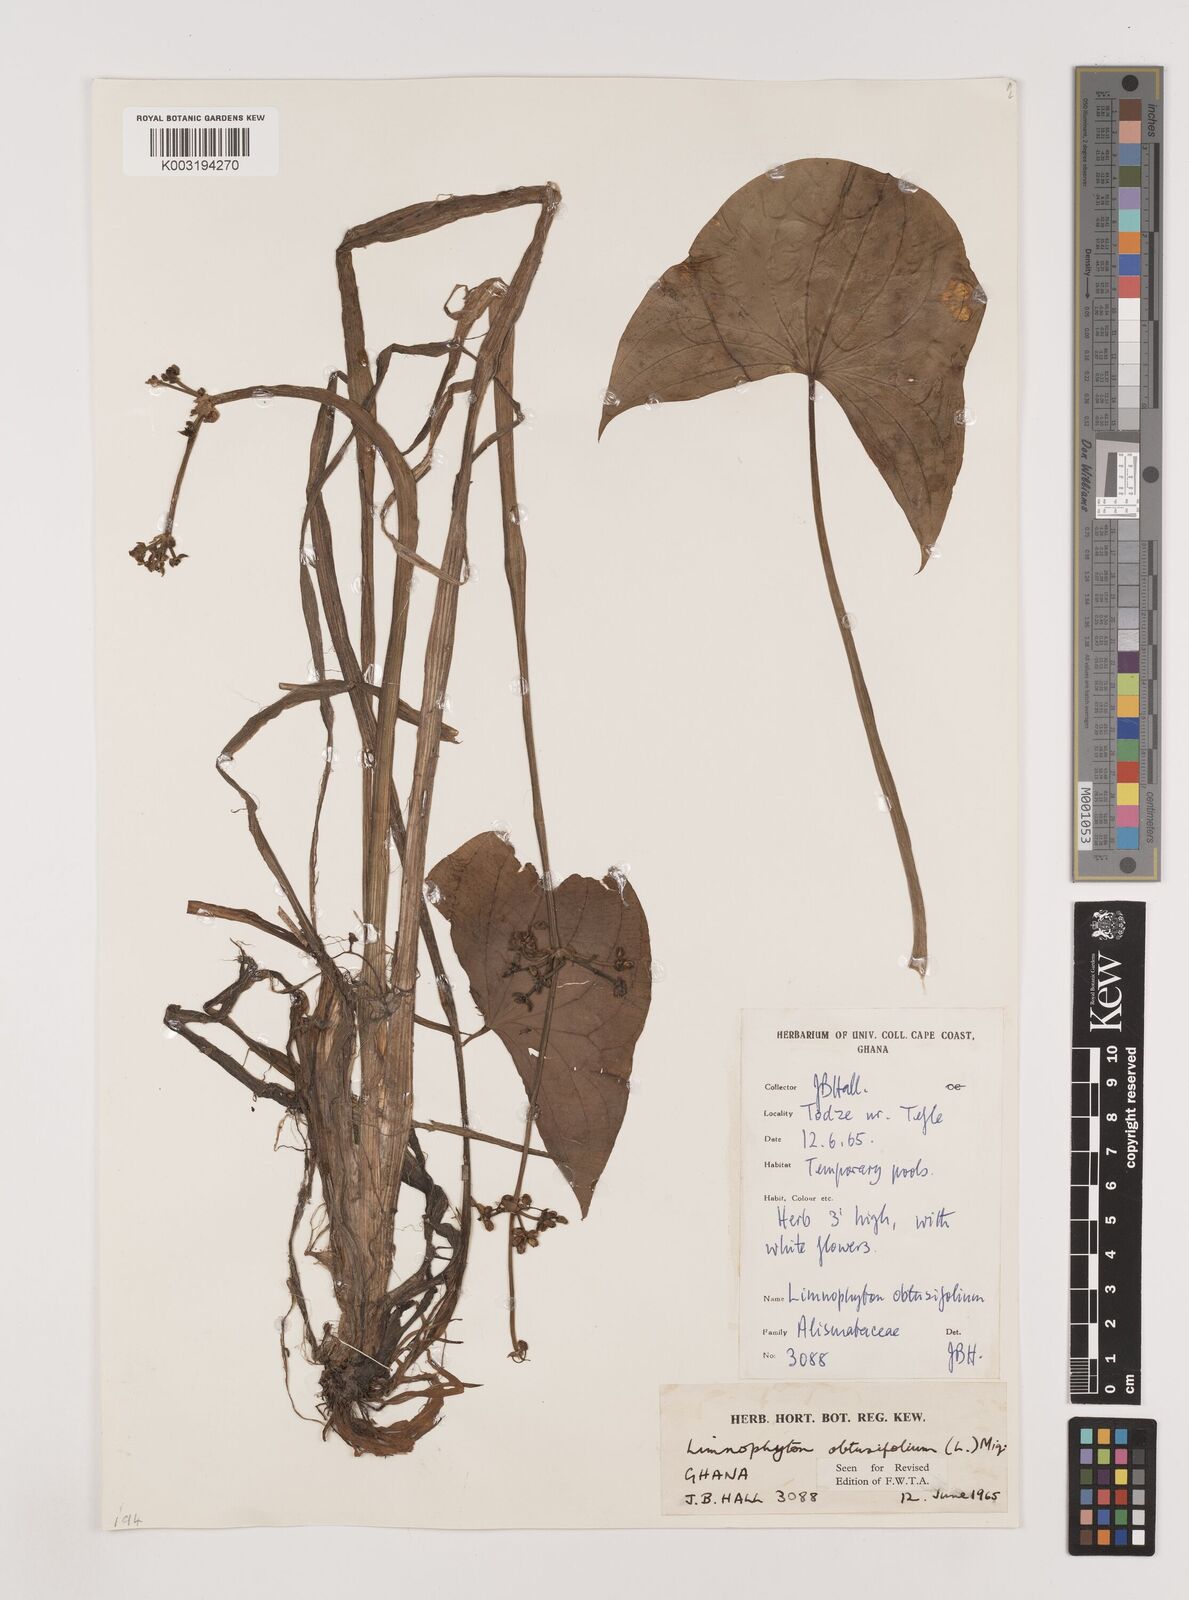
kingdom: Plantae
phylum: Tracheophyta
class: Liliopsida
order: Alismatales
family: Alismataceae
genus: Limnophyton
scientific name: Limnophyton obtusifolium
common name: Arrow head
